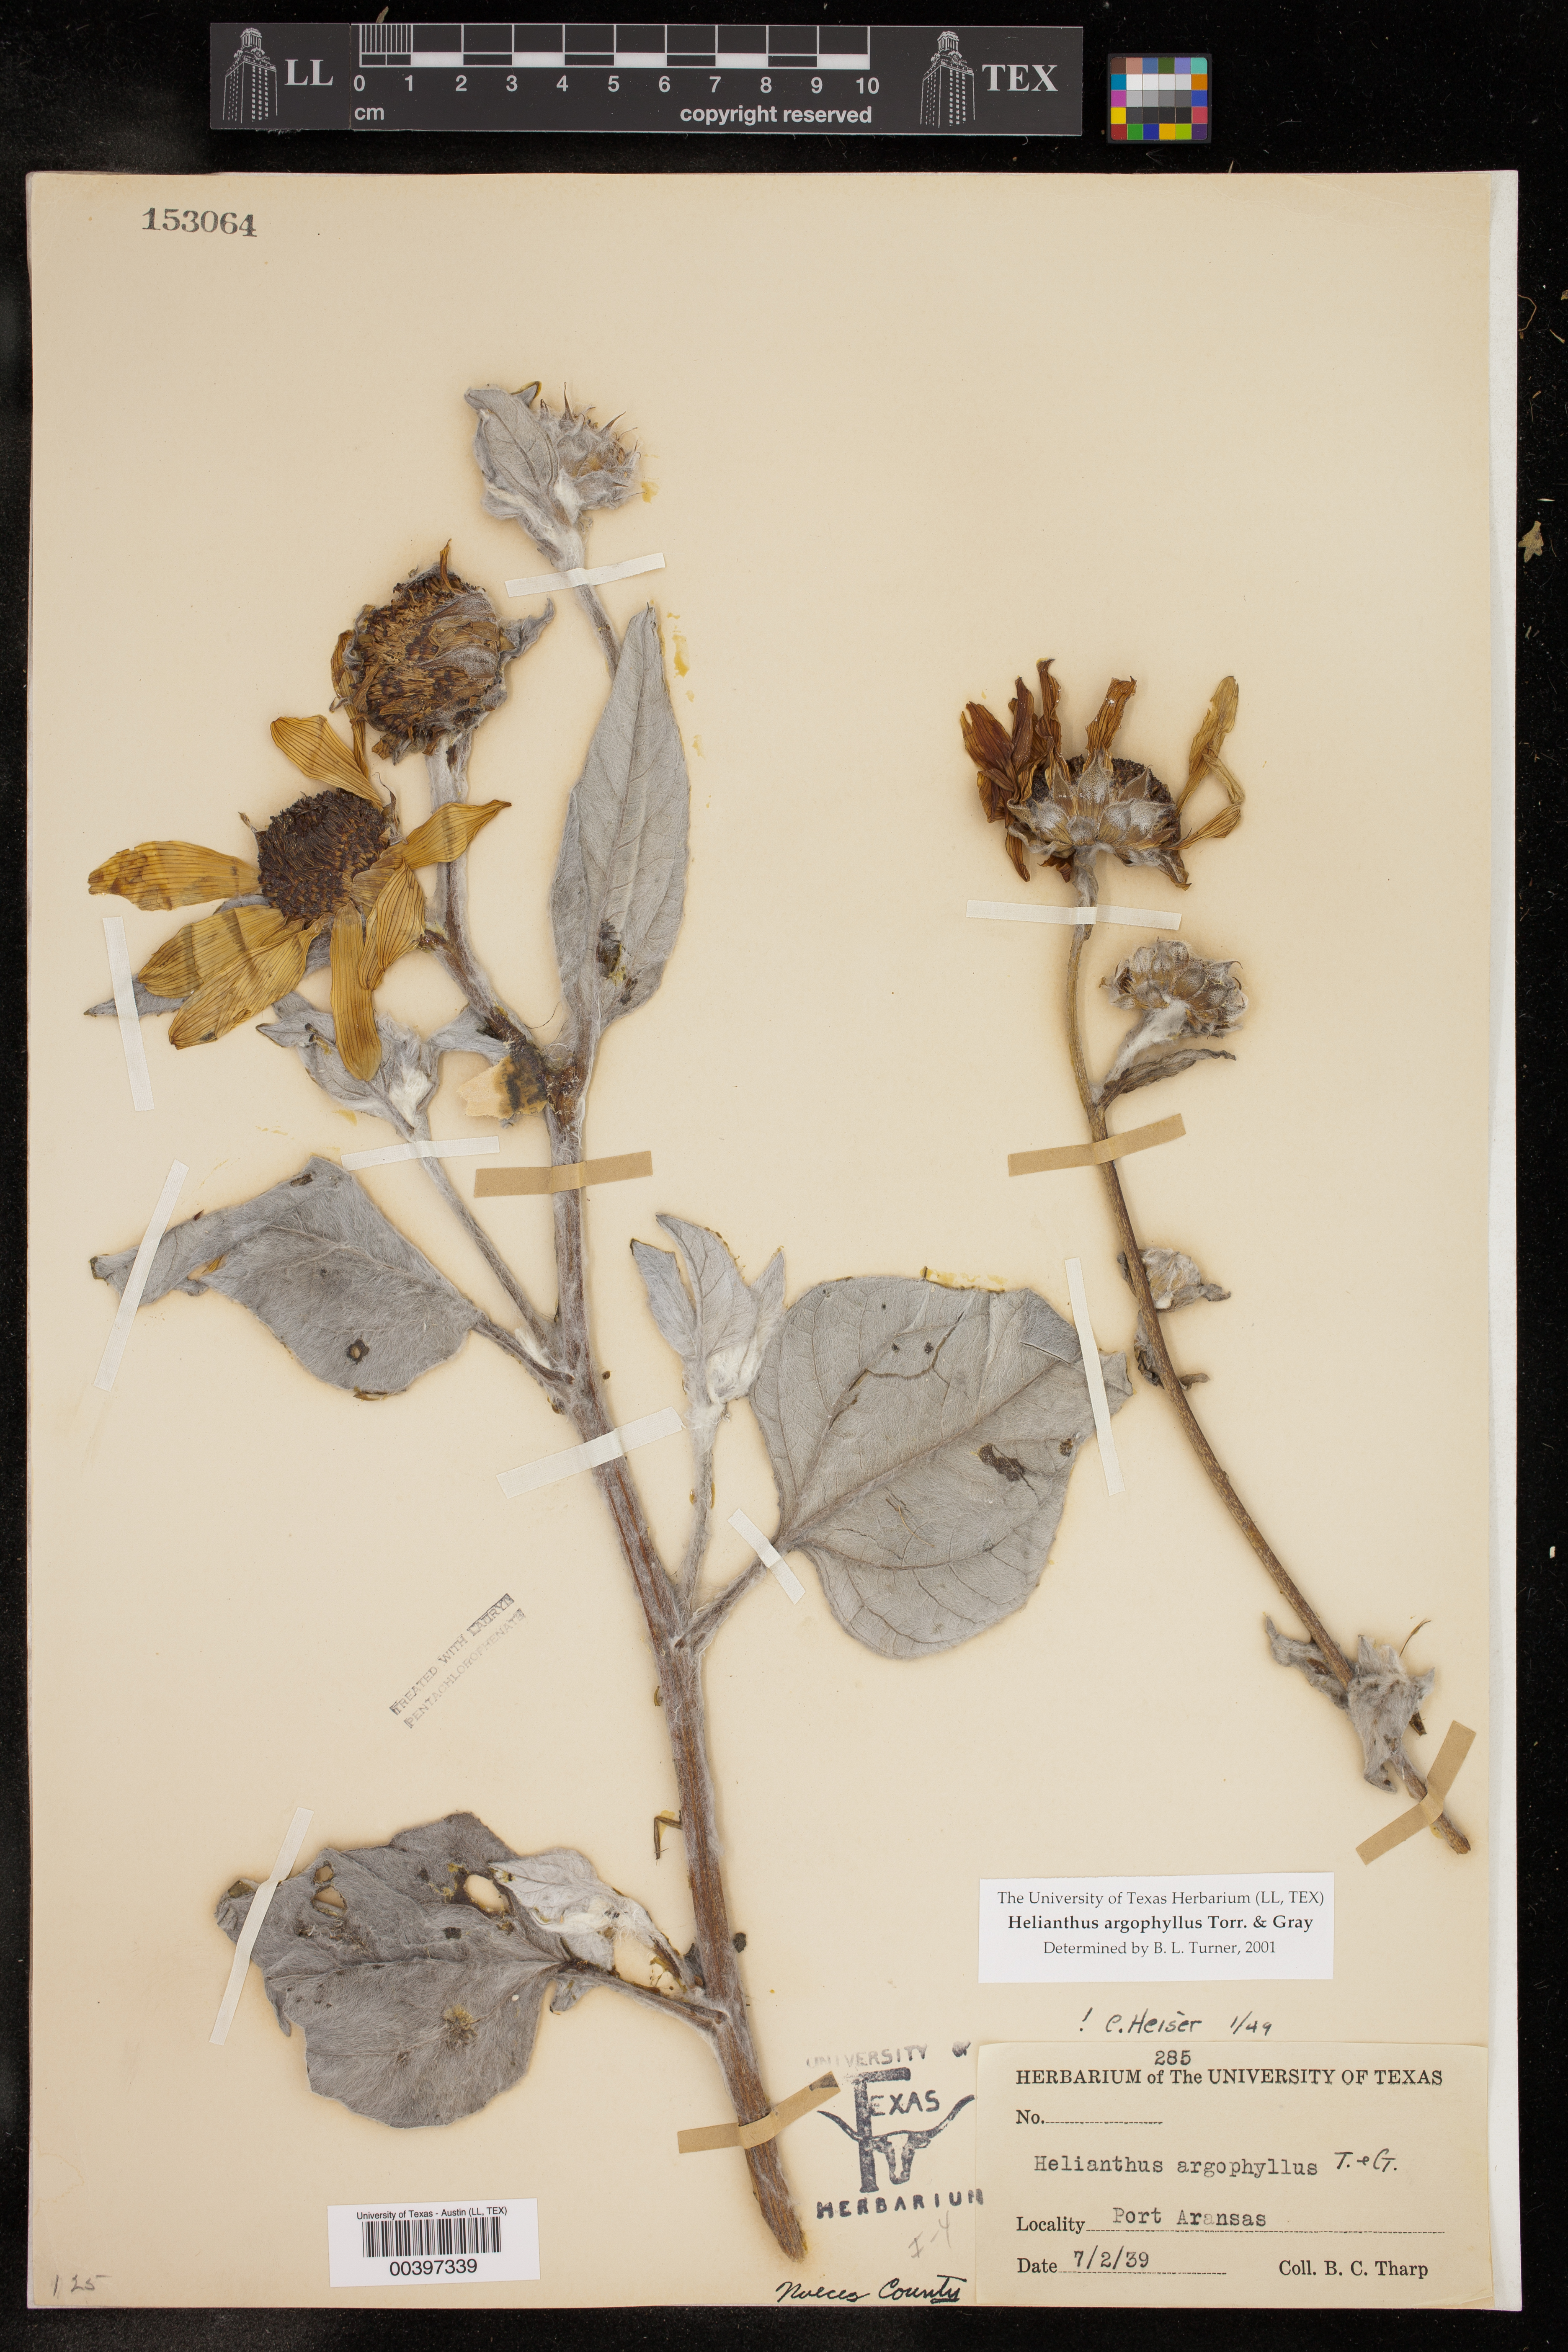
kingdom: Plantae
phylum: Tracheophyta
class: Magnoliopsida
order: Asterales
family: Asteraceae
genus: Helianthus
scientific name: Helianthus argophyllus
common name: Silverleaf sunflower
